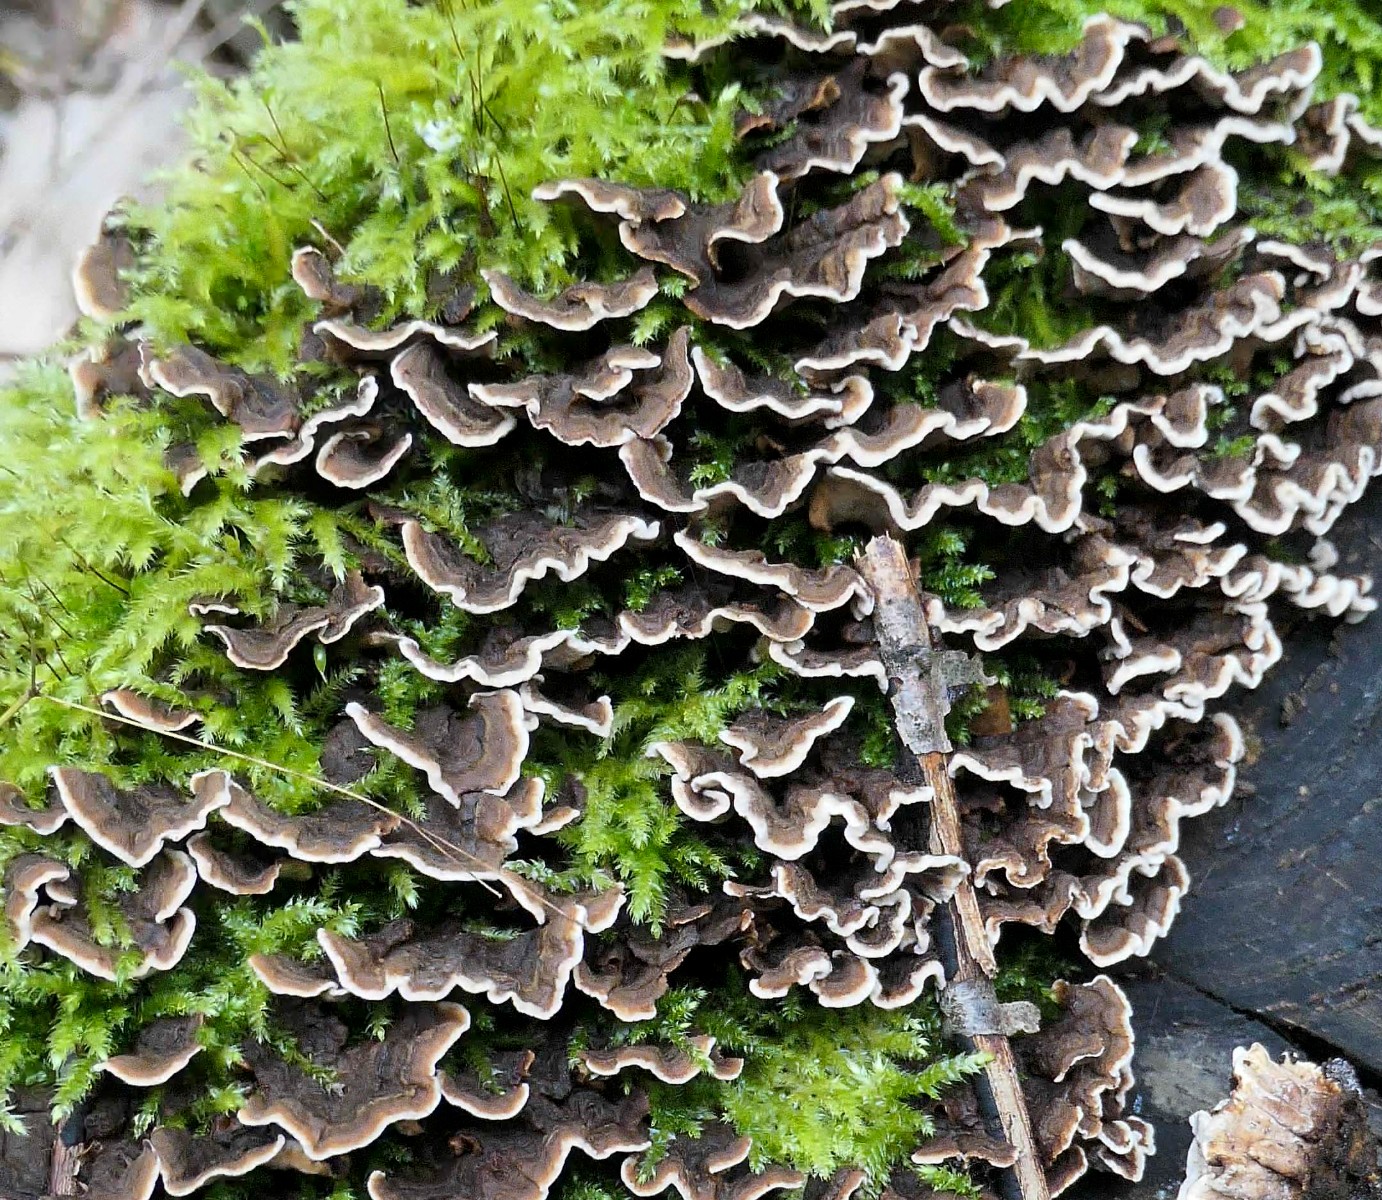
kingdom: Fungi
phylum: Basidiomycota
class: Agaricomycetes
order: Russulales
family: Hericiaceae
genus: Laxitextum
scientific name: Laxitextum bicolor
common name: tvefarvet filtskind
